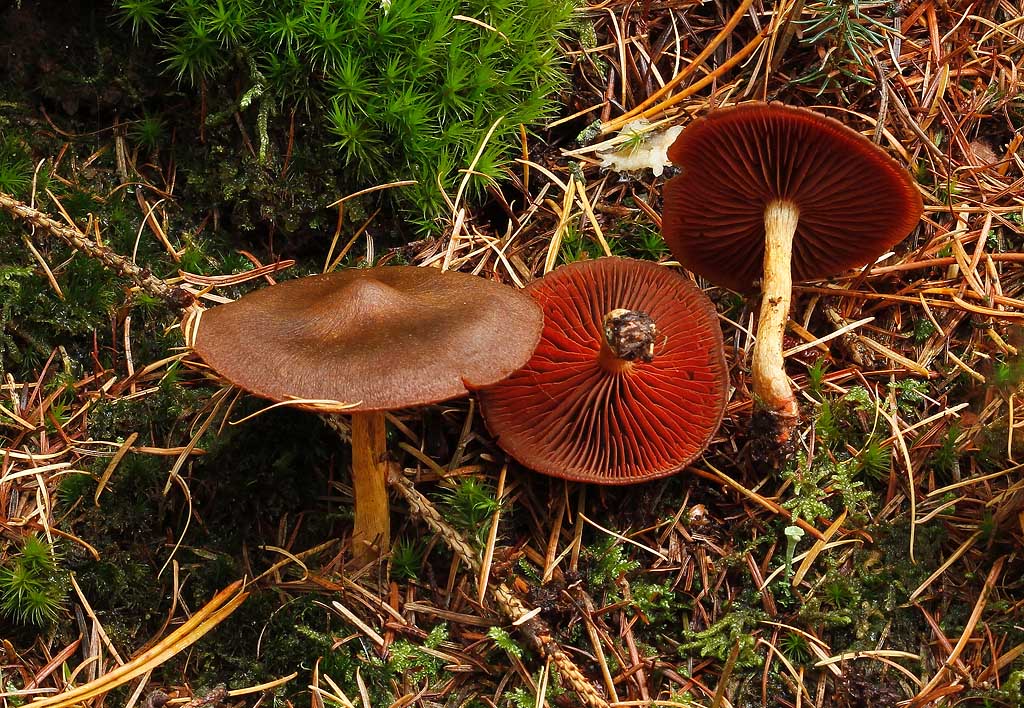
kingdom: Fungi
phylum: Basidiomycota
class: Agaricomycetes
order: Agaricales
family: Cortinariaceae
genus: Cortinarius
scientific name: Cortinarius
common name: cinnoberbladet slørhat
